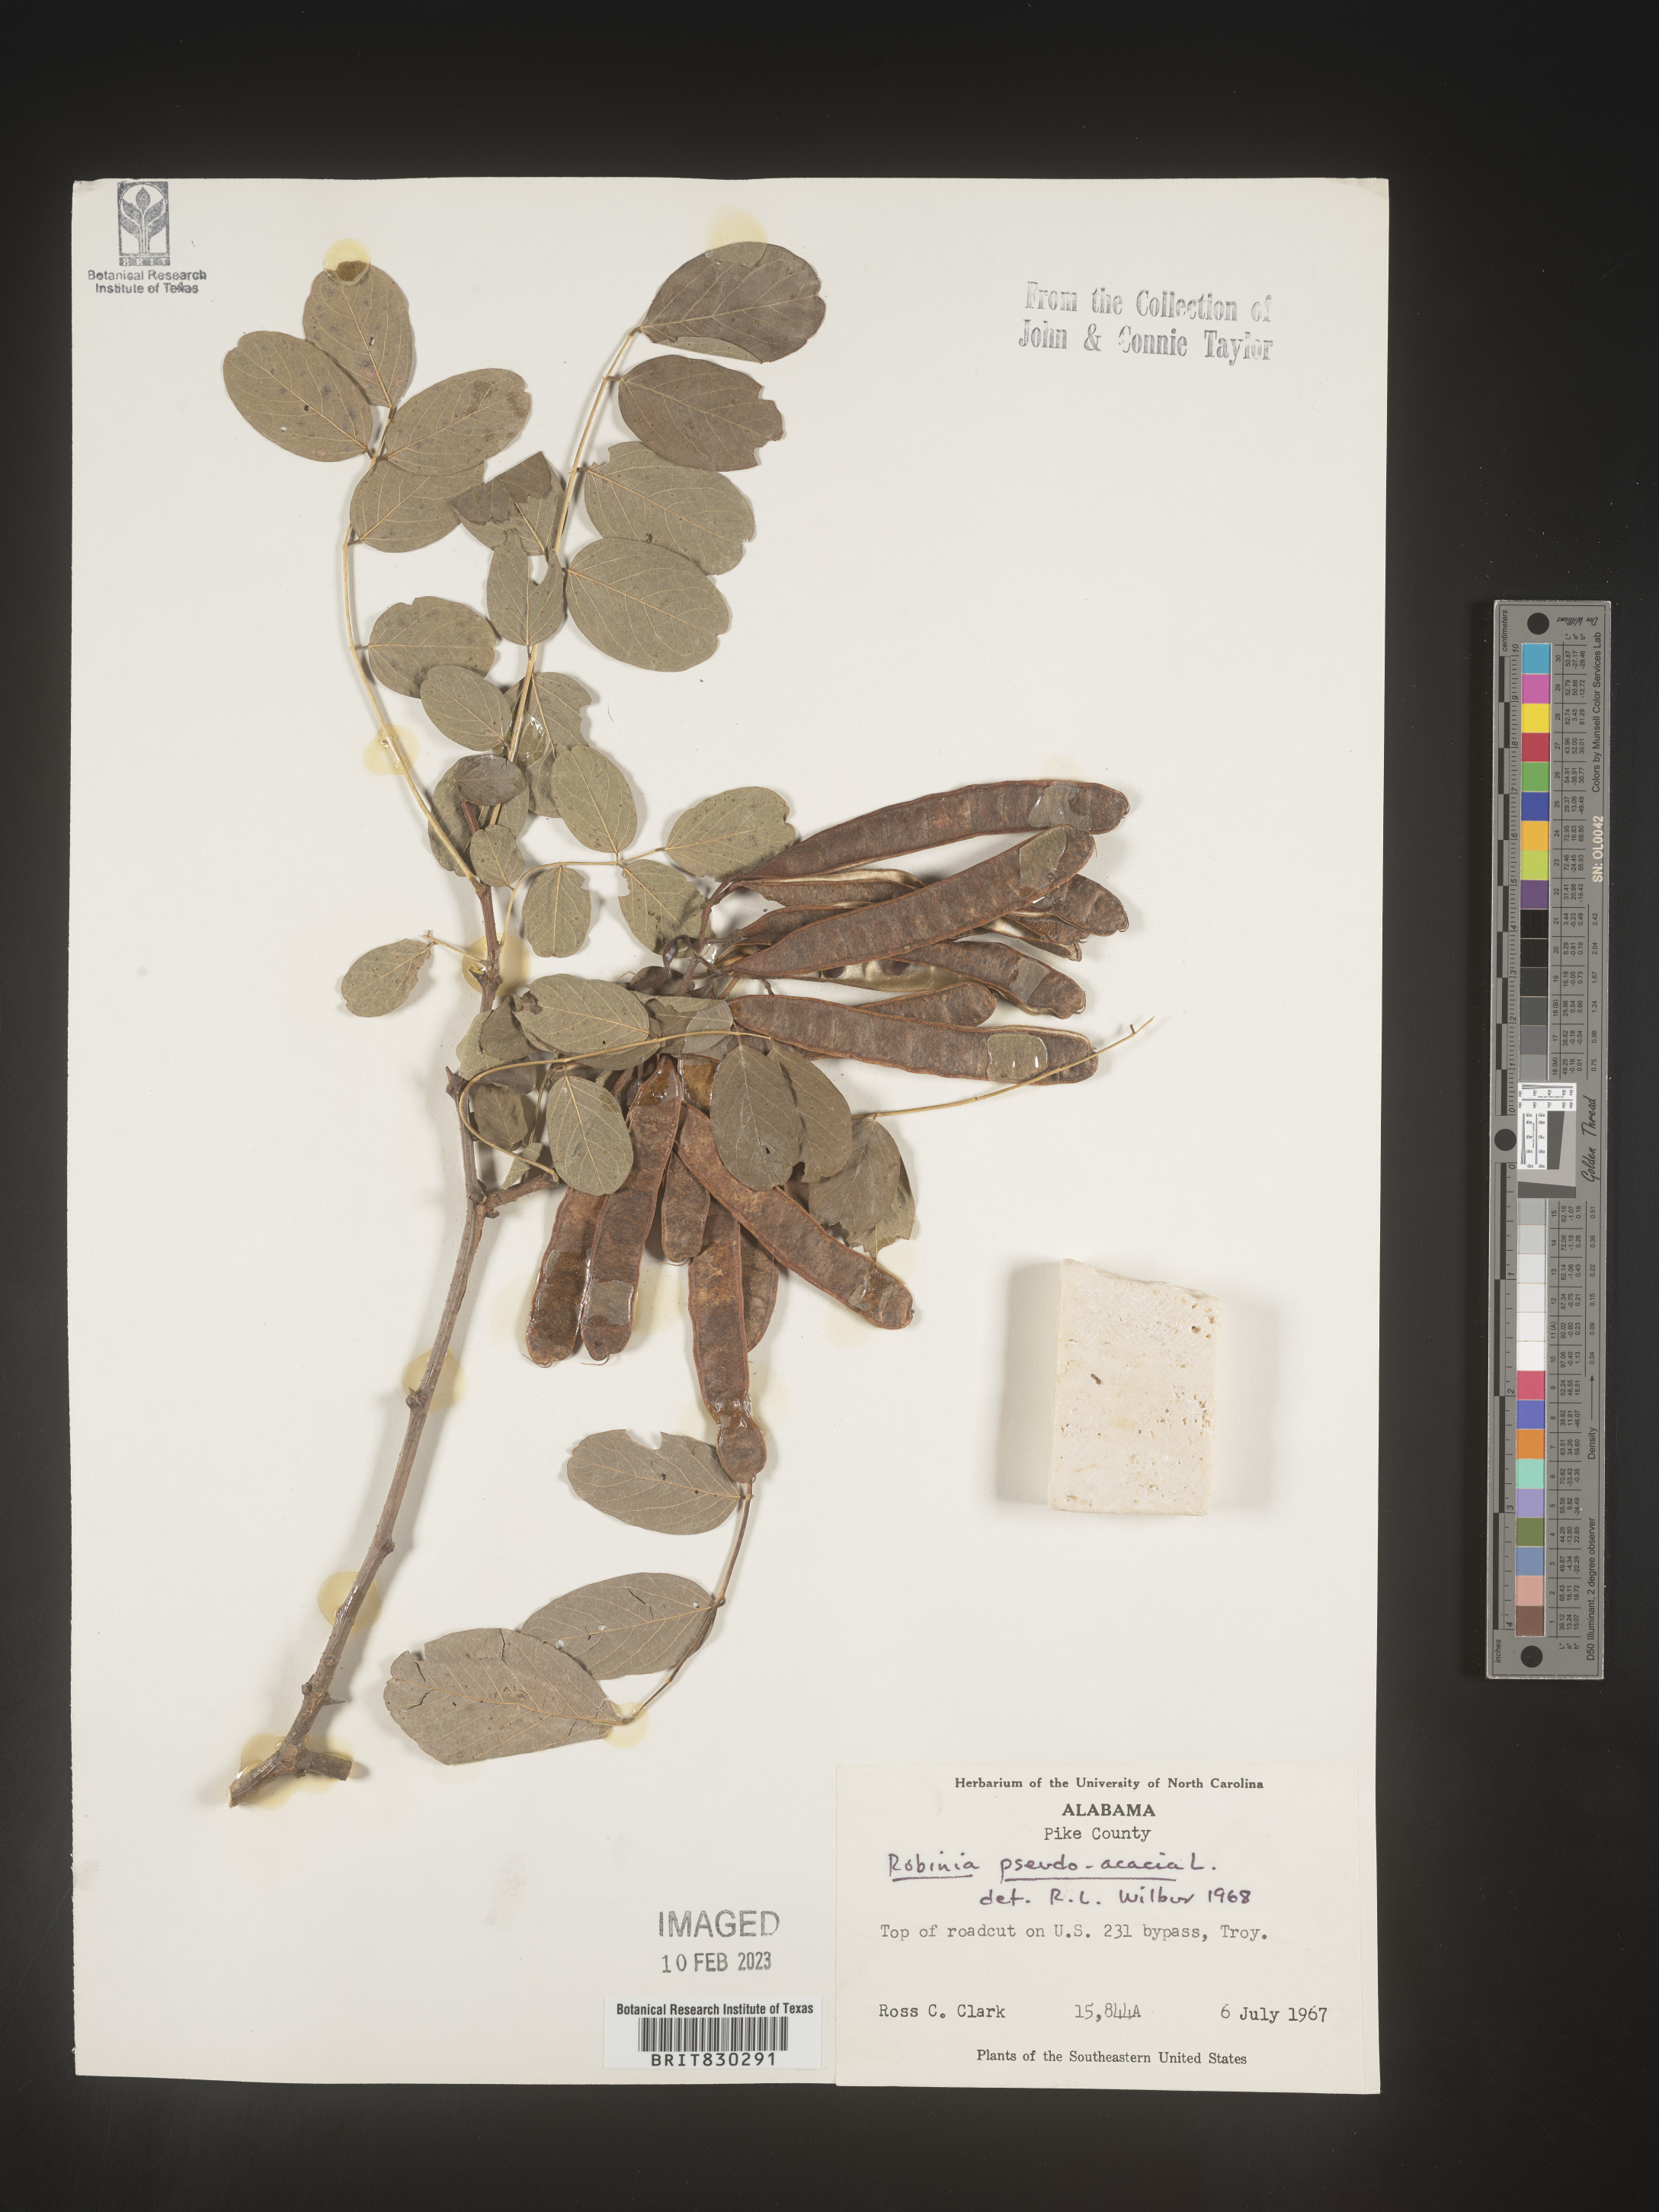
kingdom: Plantae
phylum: Tracheophyta
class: Magnoliopsida
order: Fabales
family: Fabaceae
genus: Robinia
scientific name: Robinia pseudoacacia
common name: Black locust
